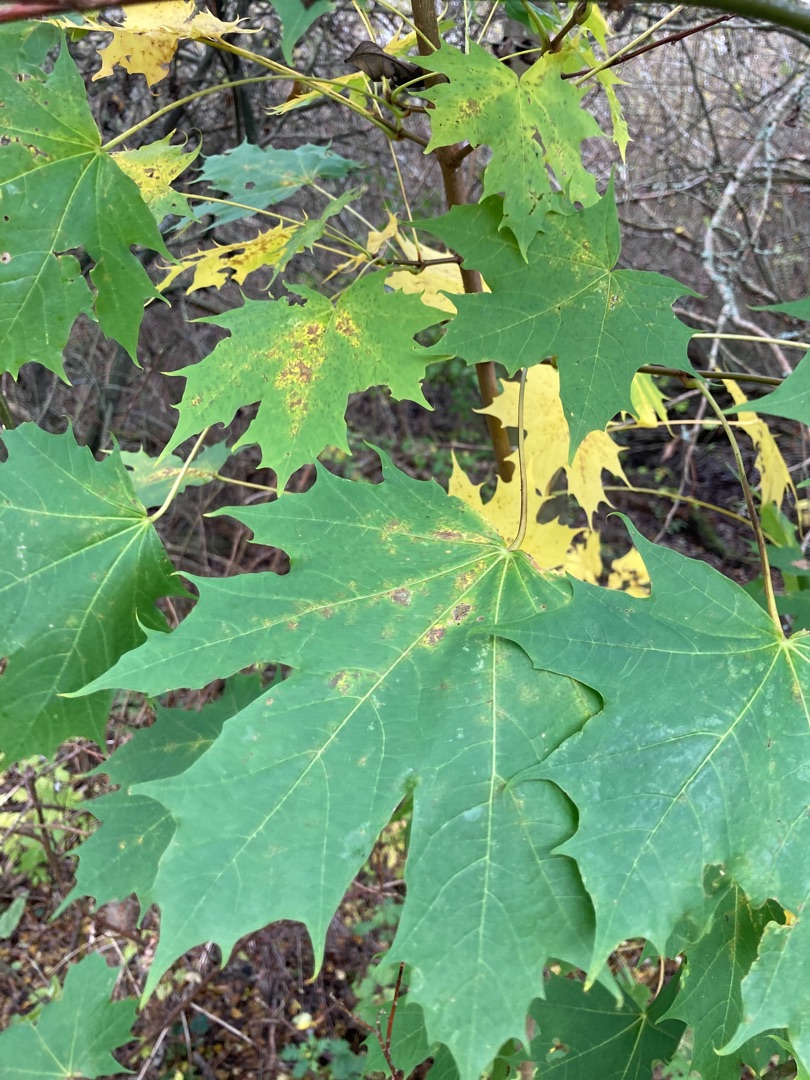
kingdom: Plantae
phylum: Tracheophyta
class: Magnoliopsida
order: Sapindales
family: Sapindaceae
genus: Acer
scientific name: Acer platanoides
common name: Spids-løn
